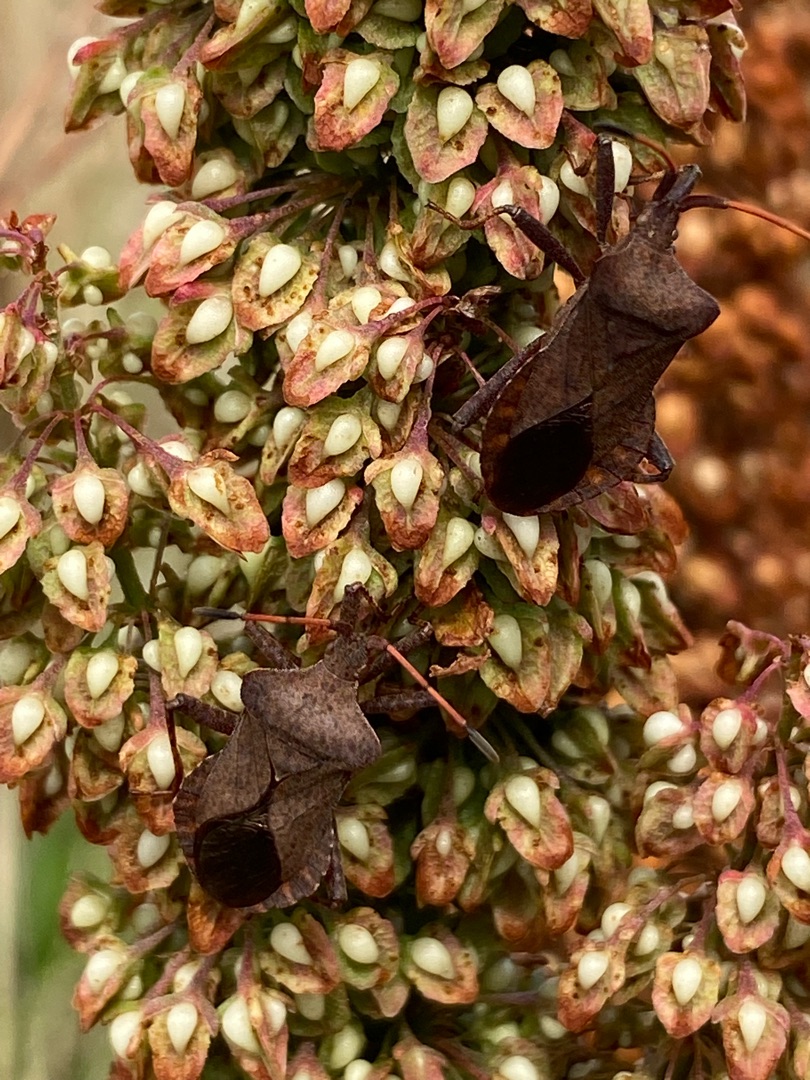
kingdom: Animalia
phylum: Arthropoda
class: Insecta
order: Hemiptera
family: Coreidae
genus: Coreus
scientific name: Coreus marginatus
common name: Skræppetæge
